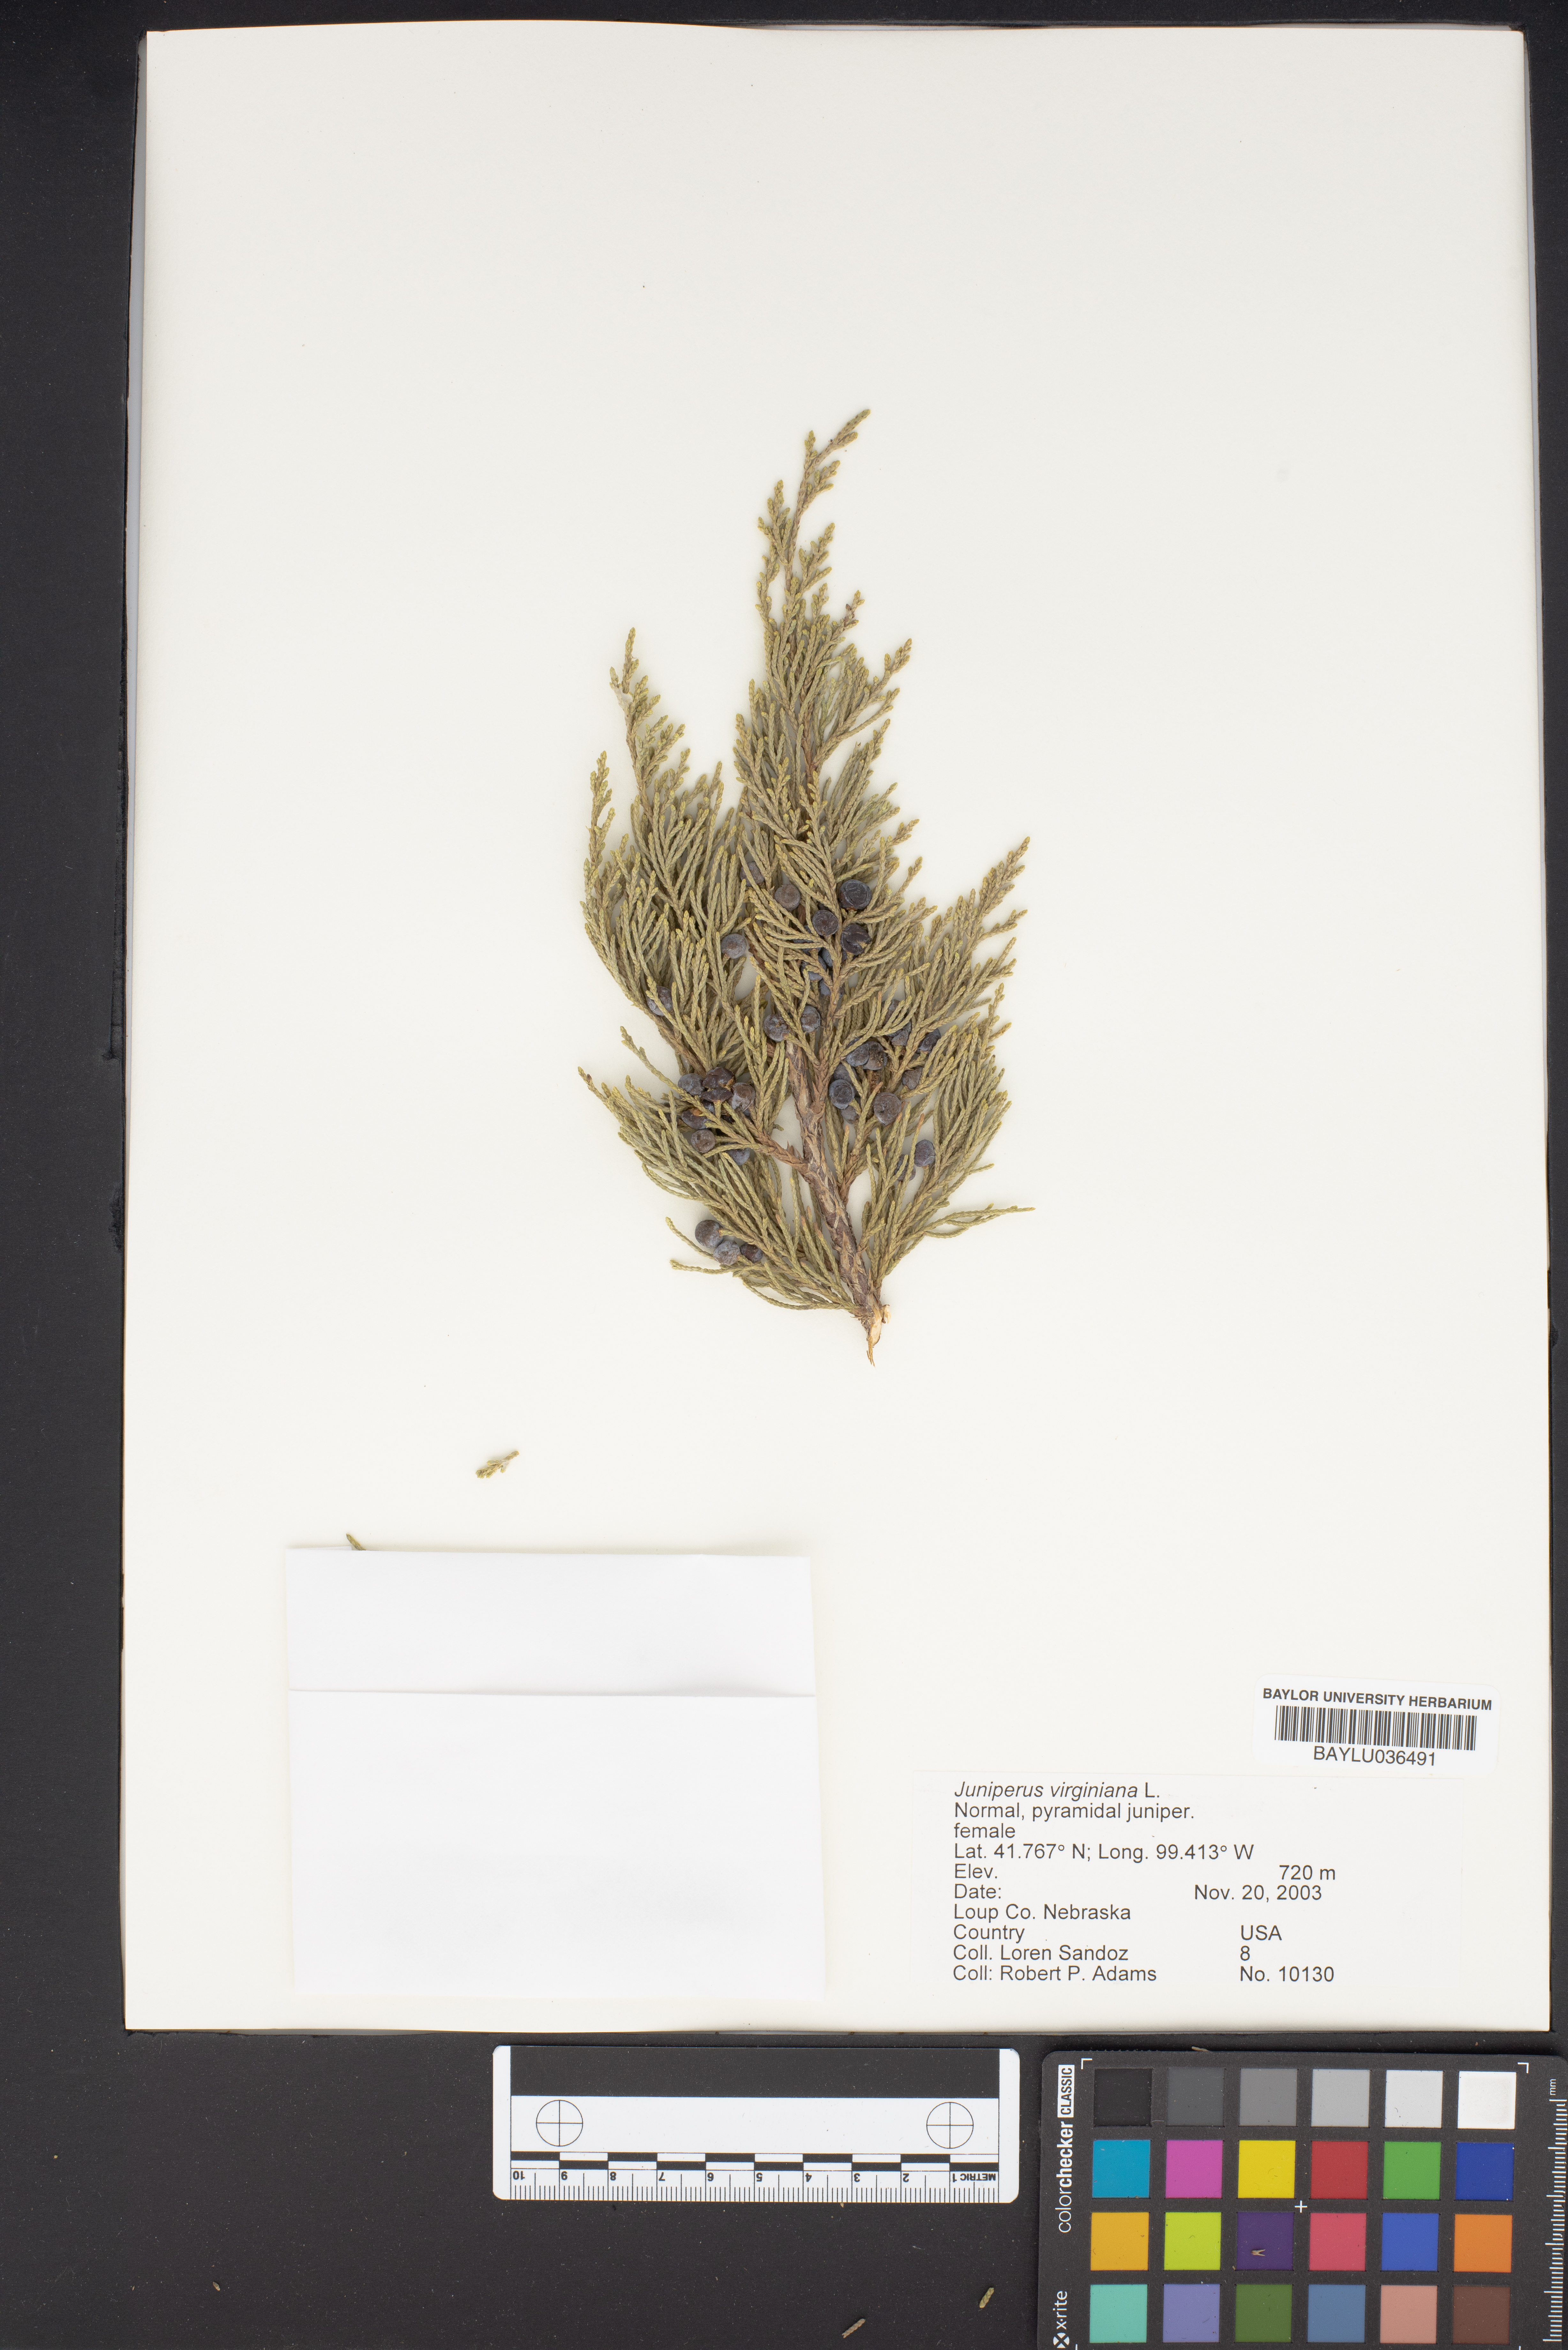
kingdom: Plantae
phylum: Tracheophyta
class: Pinopsida
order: Pinales
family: Cupressaceae
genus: Juniperus
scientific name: Juniperus virginiana
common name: Red juniper
